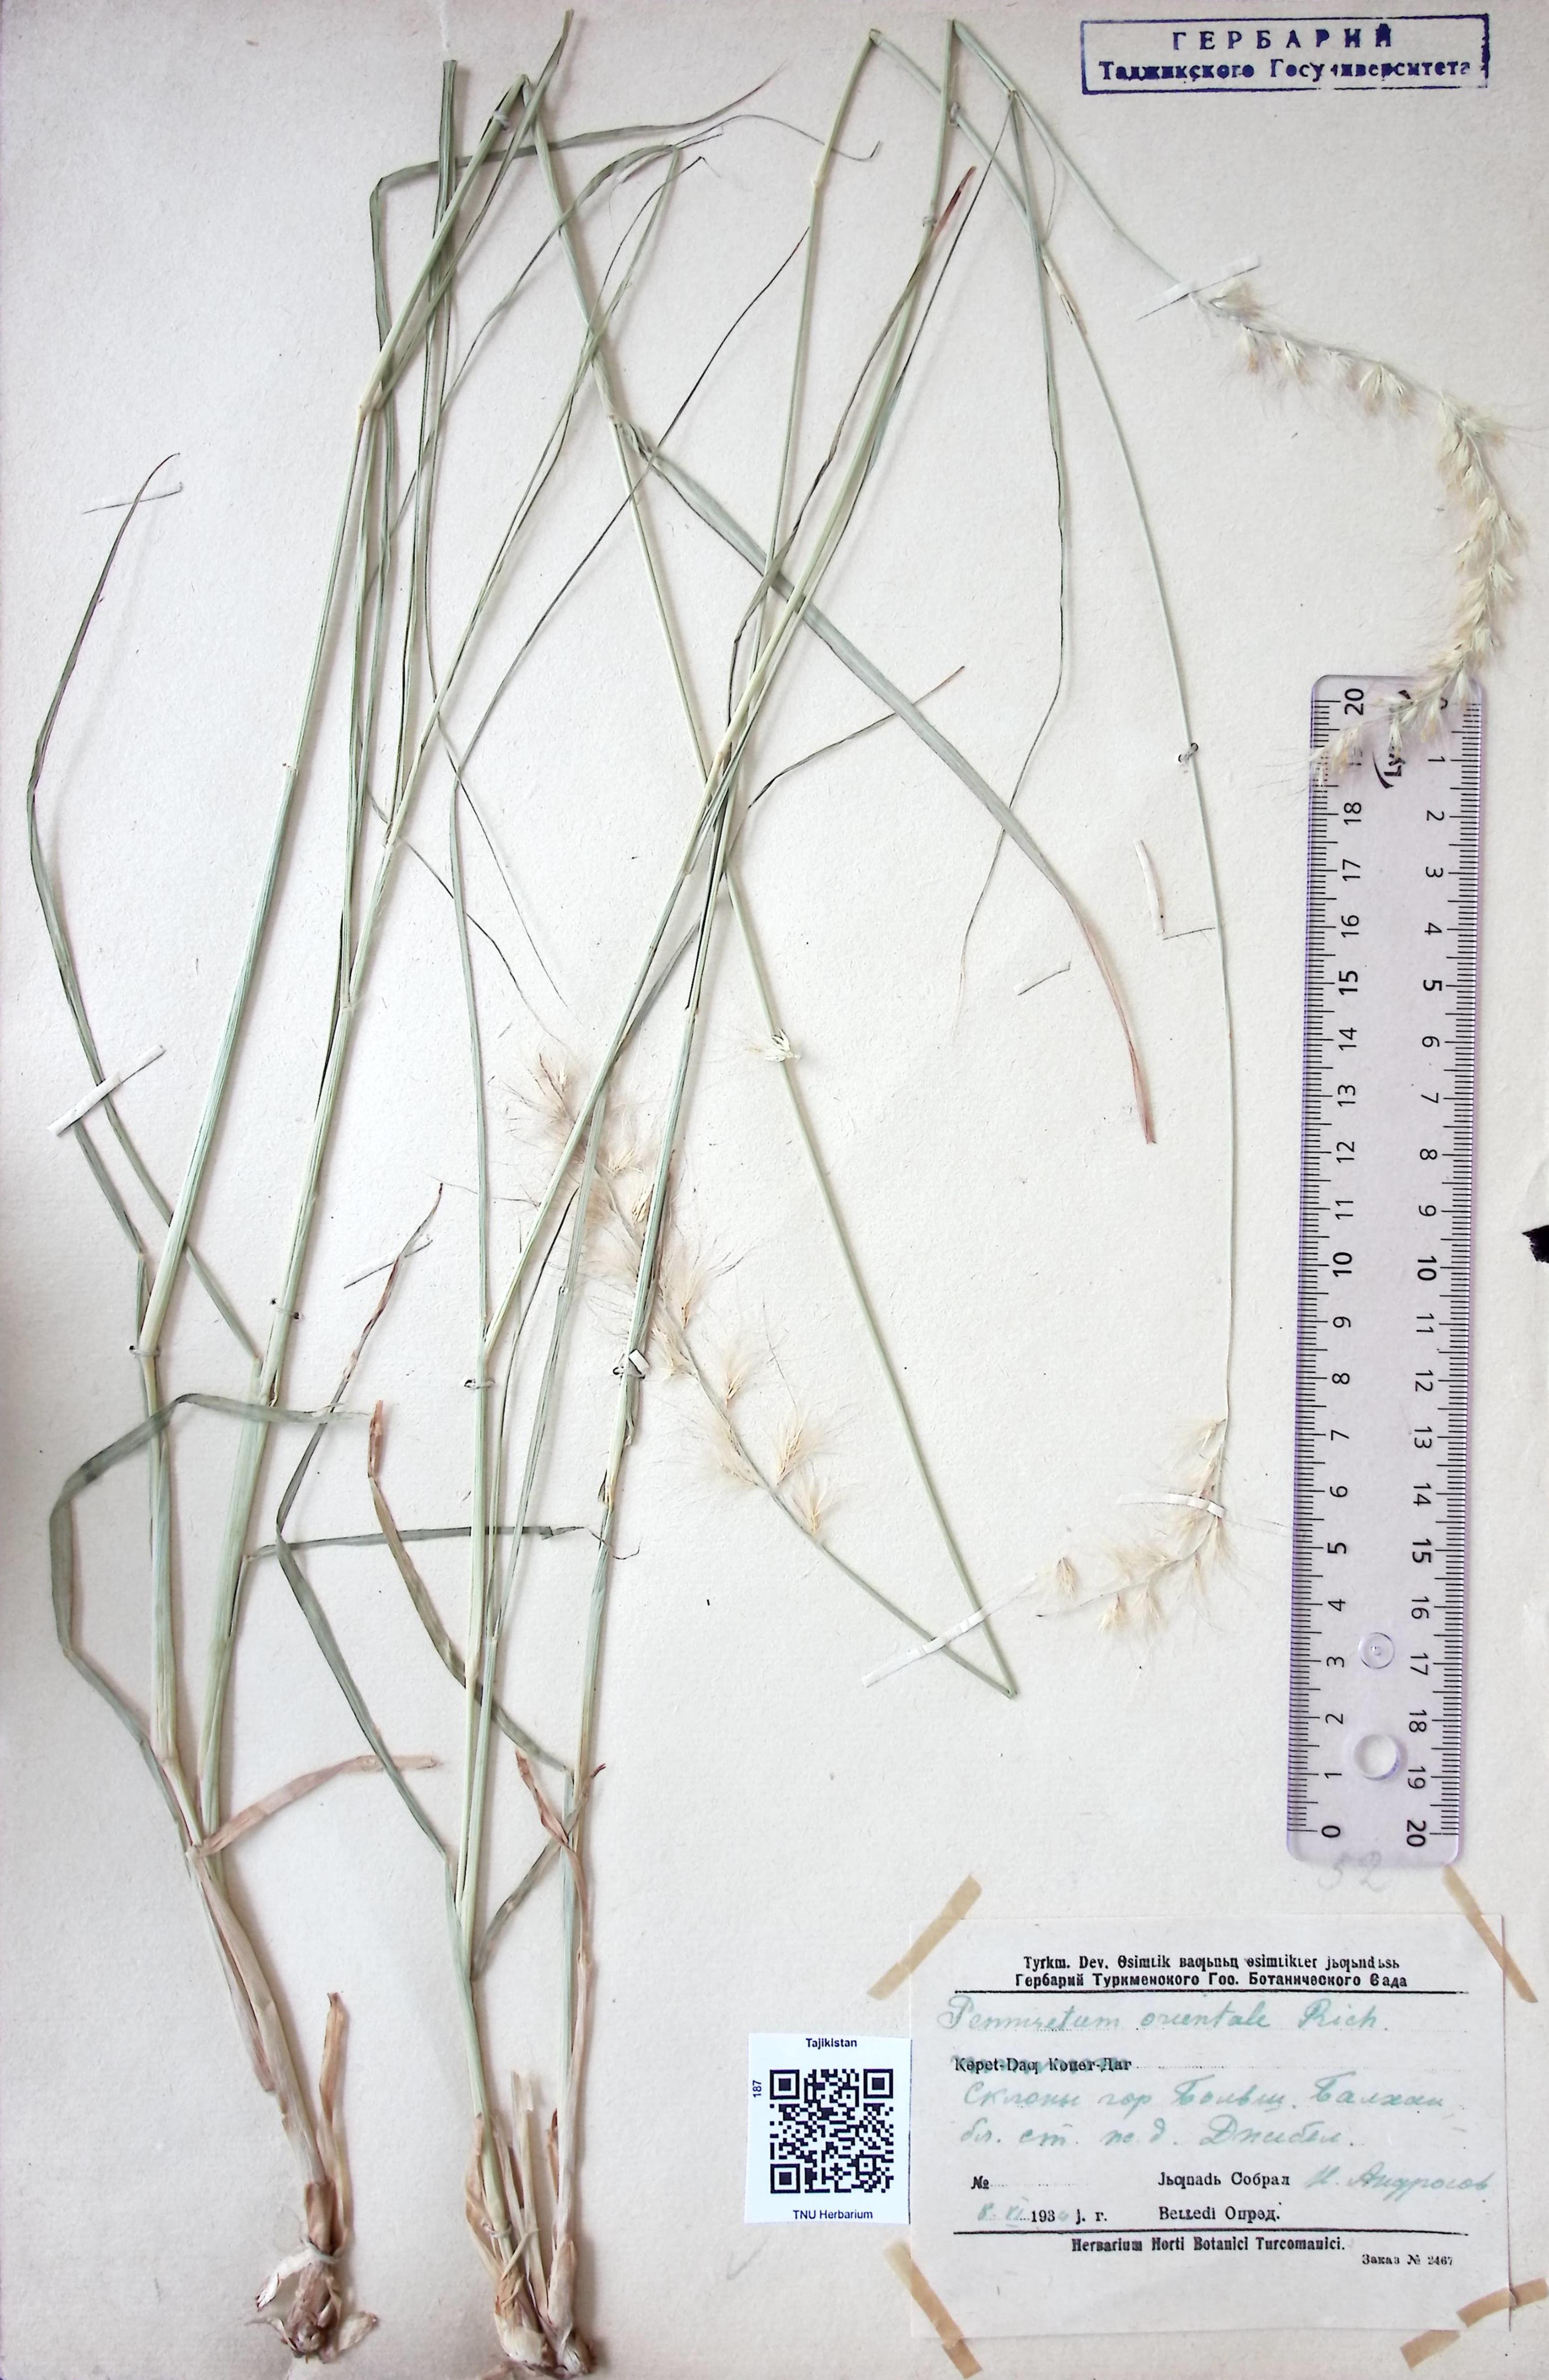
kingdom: Plantae
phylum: Tracheophyta
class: Liliopsida
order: Poales
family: Poaceae
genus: Cenchrus
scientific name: Cenchrus orientalis
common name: Oriental fountain grass
